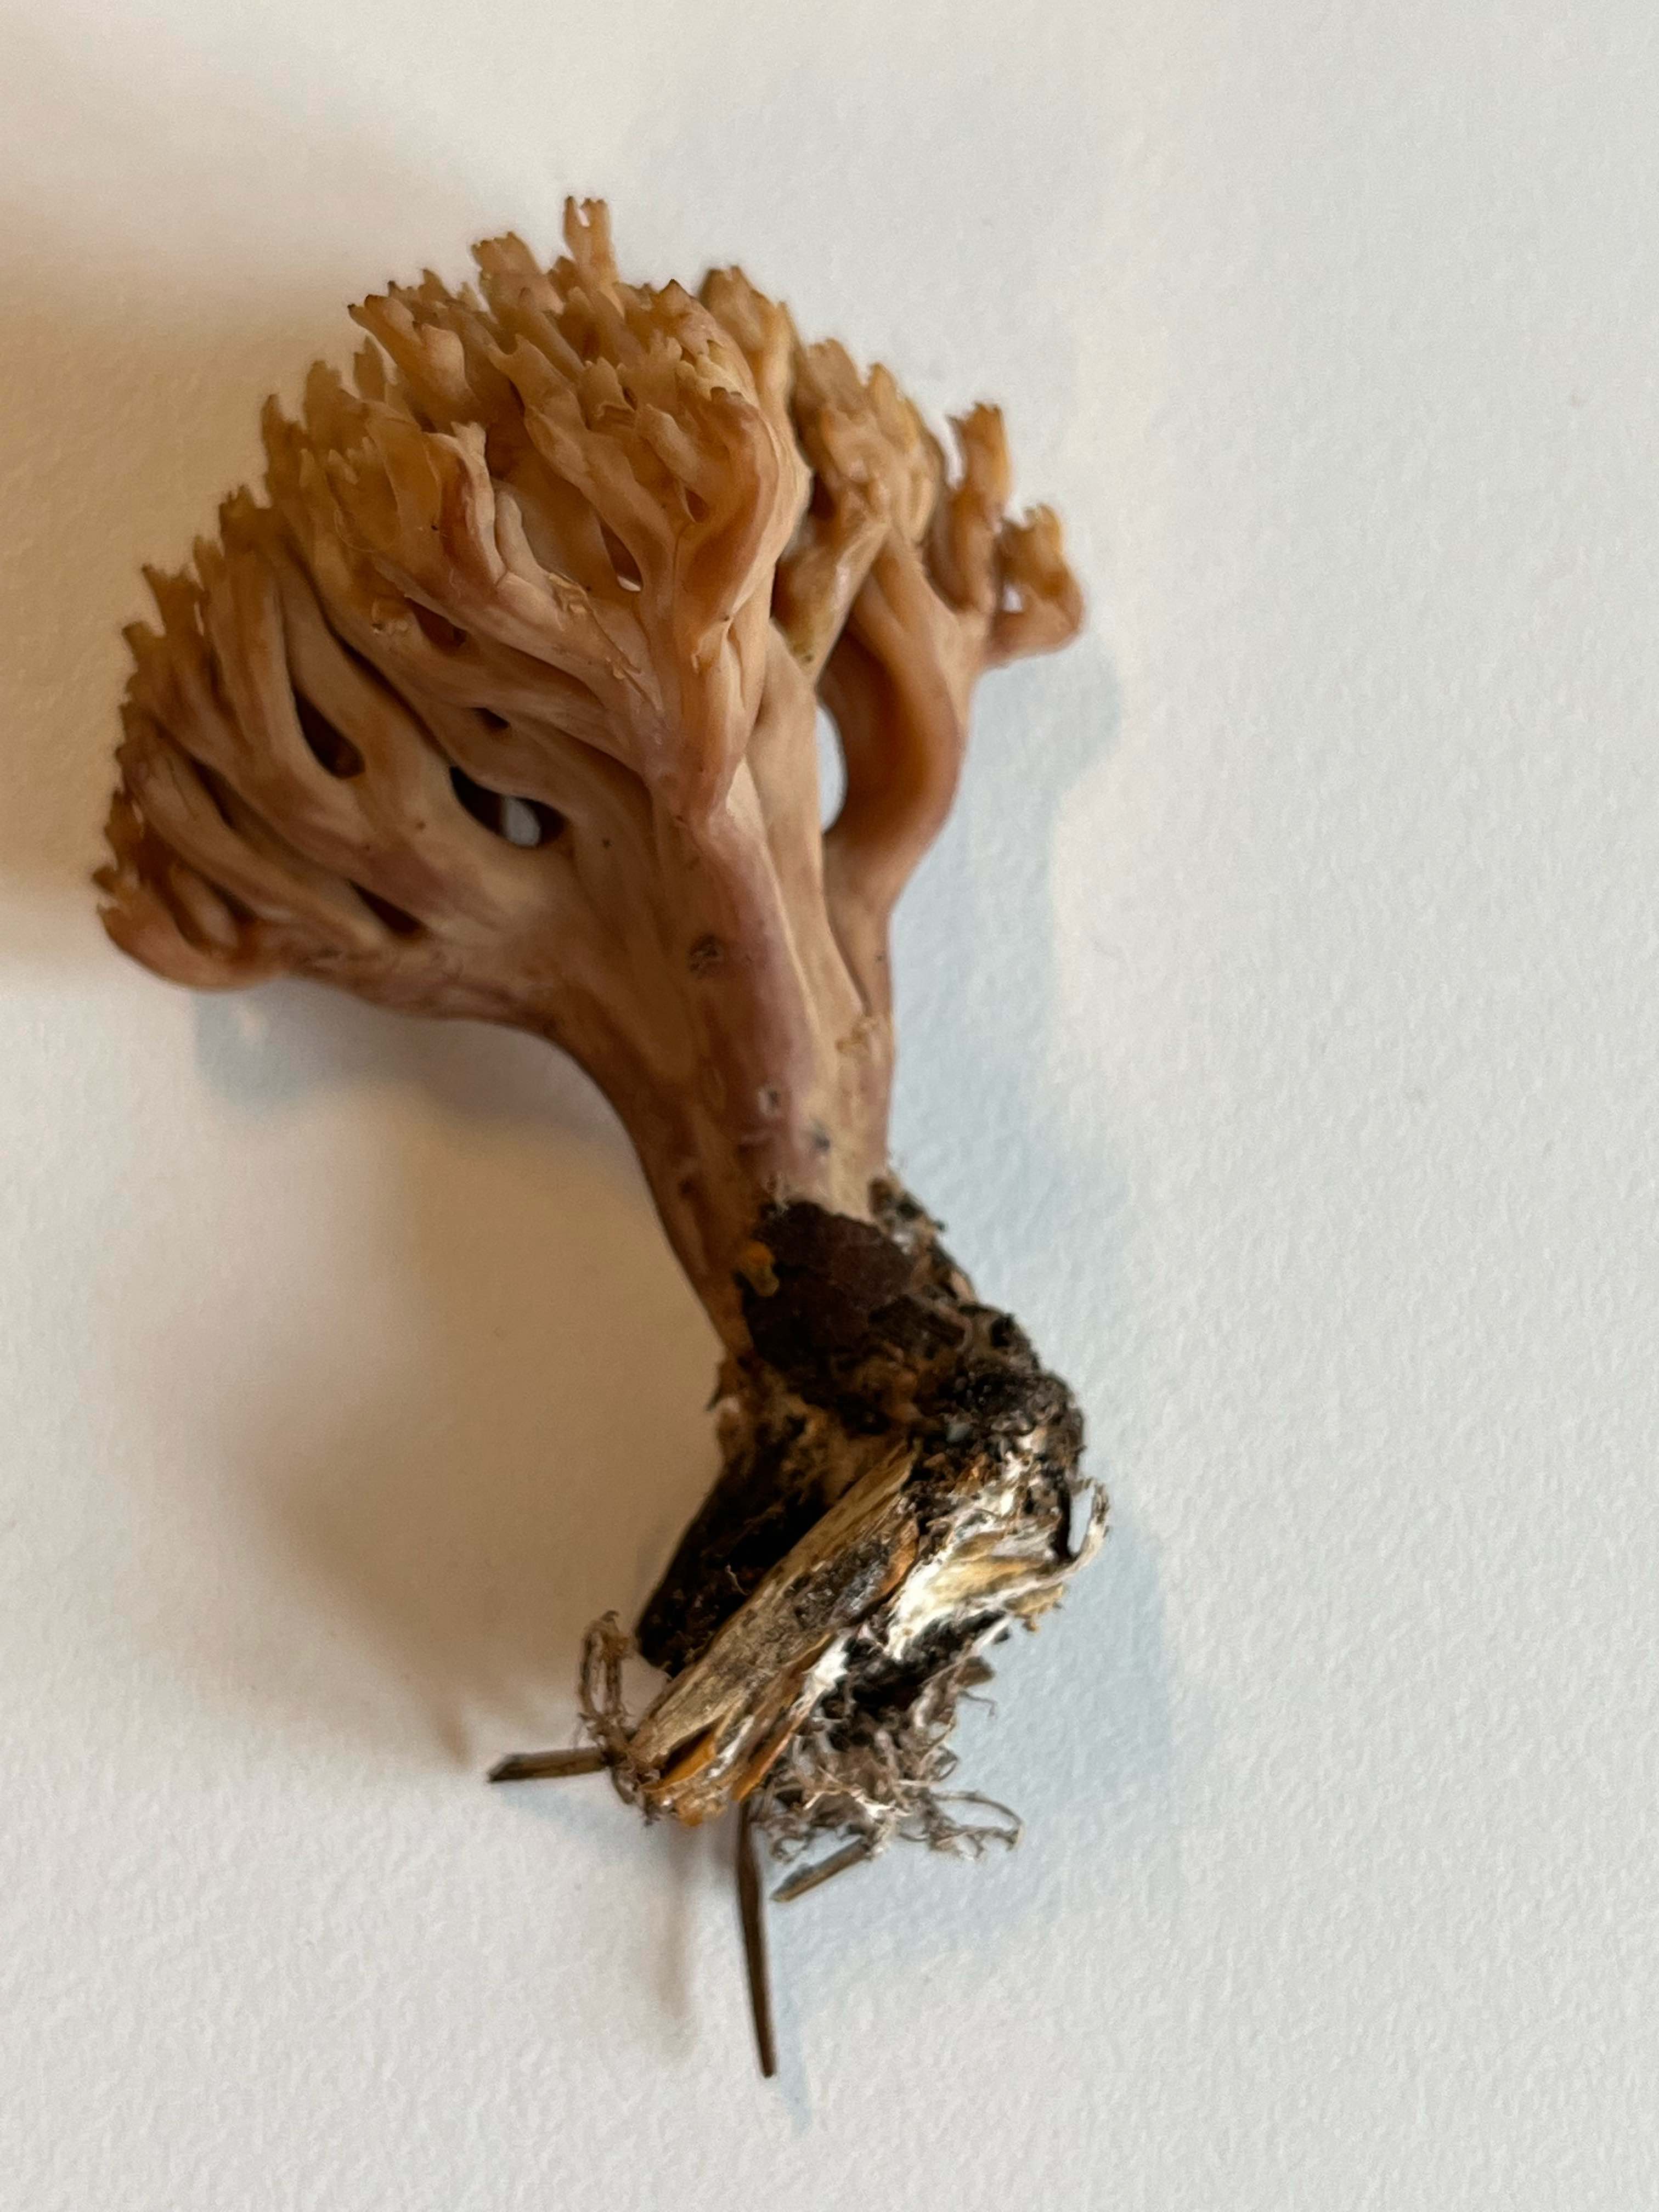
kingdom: Fungi
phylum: Basidiomycota
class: Agaricomycetes
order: Gomphales
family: Gomphaceae
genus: Phaeoclavulina
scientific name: Phaeoclavulina eumorpha
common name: gran-koralsvamp
